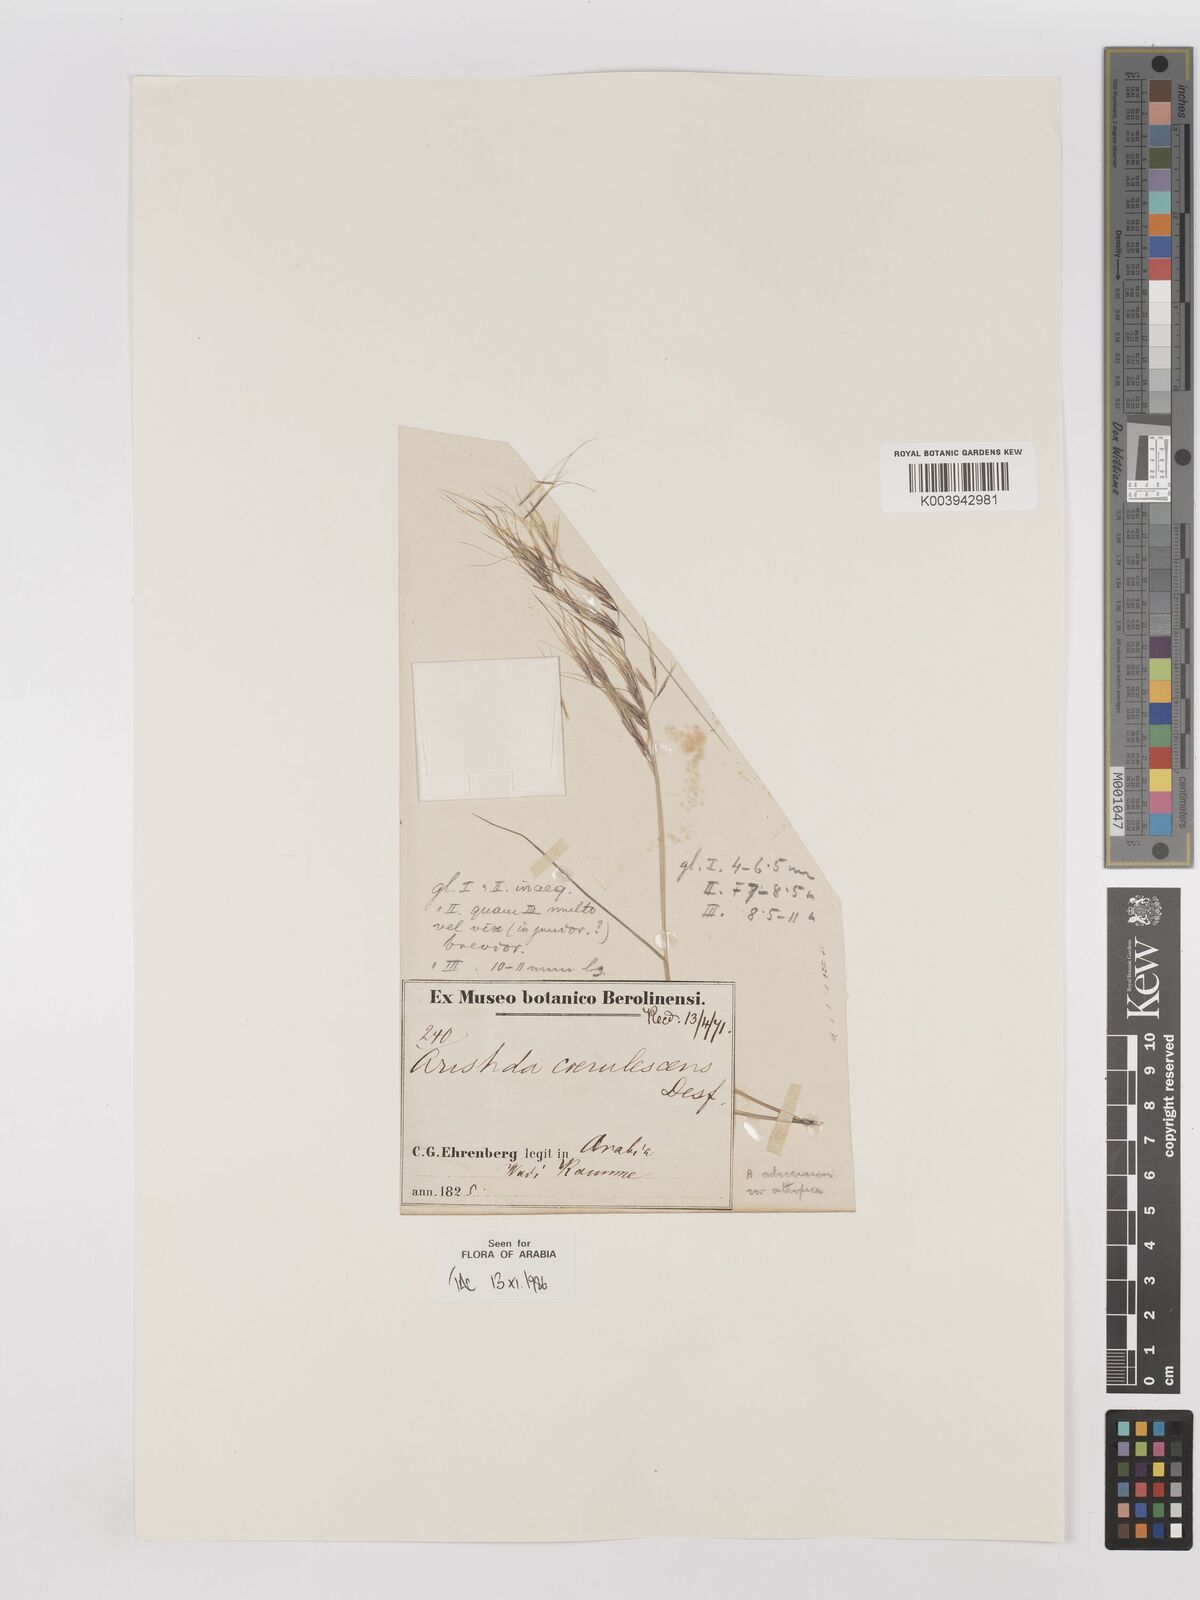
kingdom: Plantae
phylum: Tracheophyta
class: Liliopsida
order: Poales
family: Poaceae
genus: Aristida
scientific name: Aristida adscensionis
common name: Sixweeks threeawn
